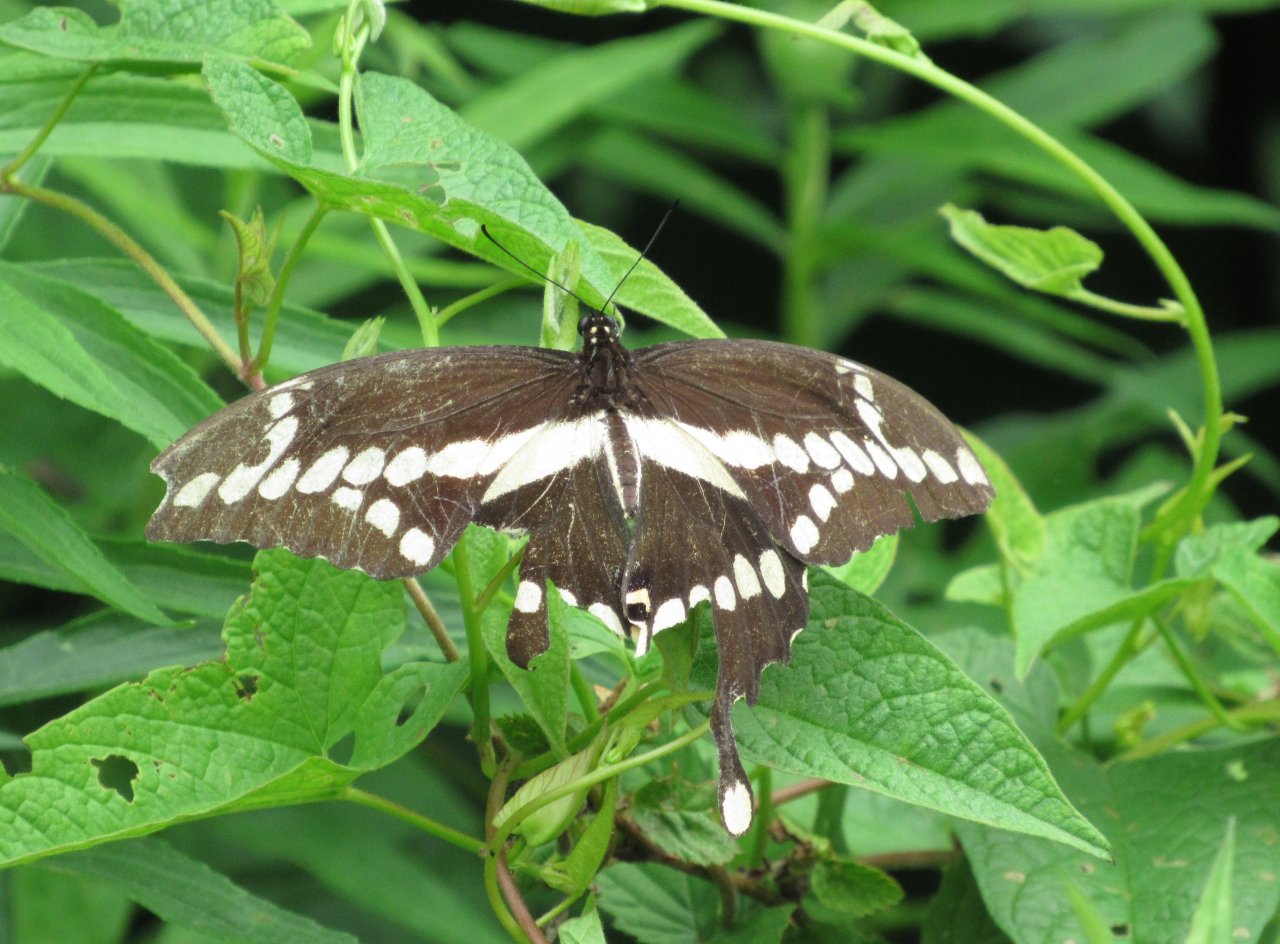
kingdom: Animalia
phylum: Arthropoda
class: Insecta
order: Lepidoptera
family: Papilionidae
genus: Papilio
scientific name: Papilio cresphontes
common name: Eastern Giant Swallowtail
